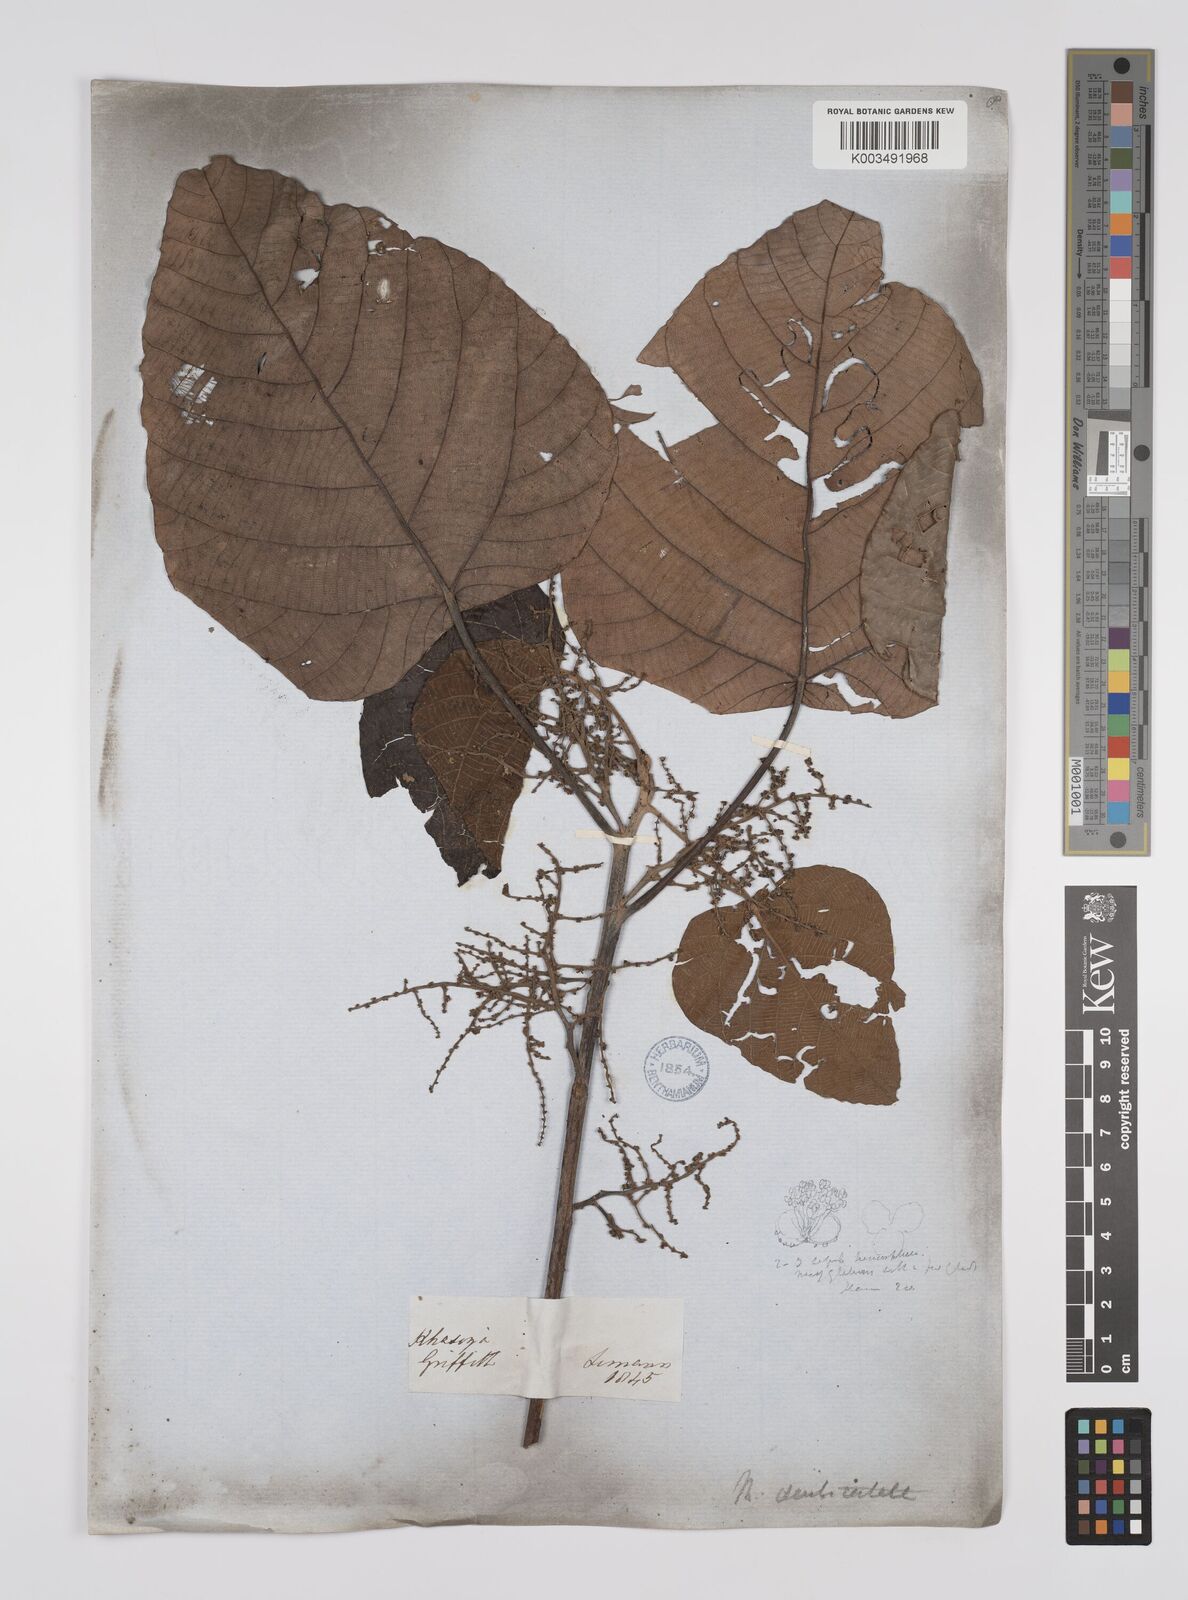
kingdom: Plantae
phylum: Tracheophyta
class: Magnoliopsida
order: Malpighiales
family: Euphorbiaceae
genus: Macaranga
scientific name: Macaranga denticulata
